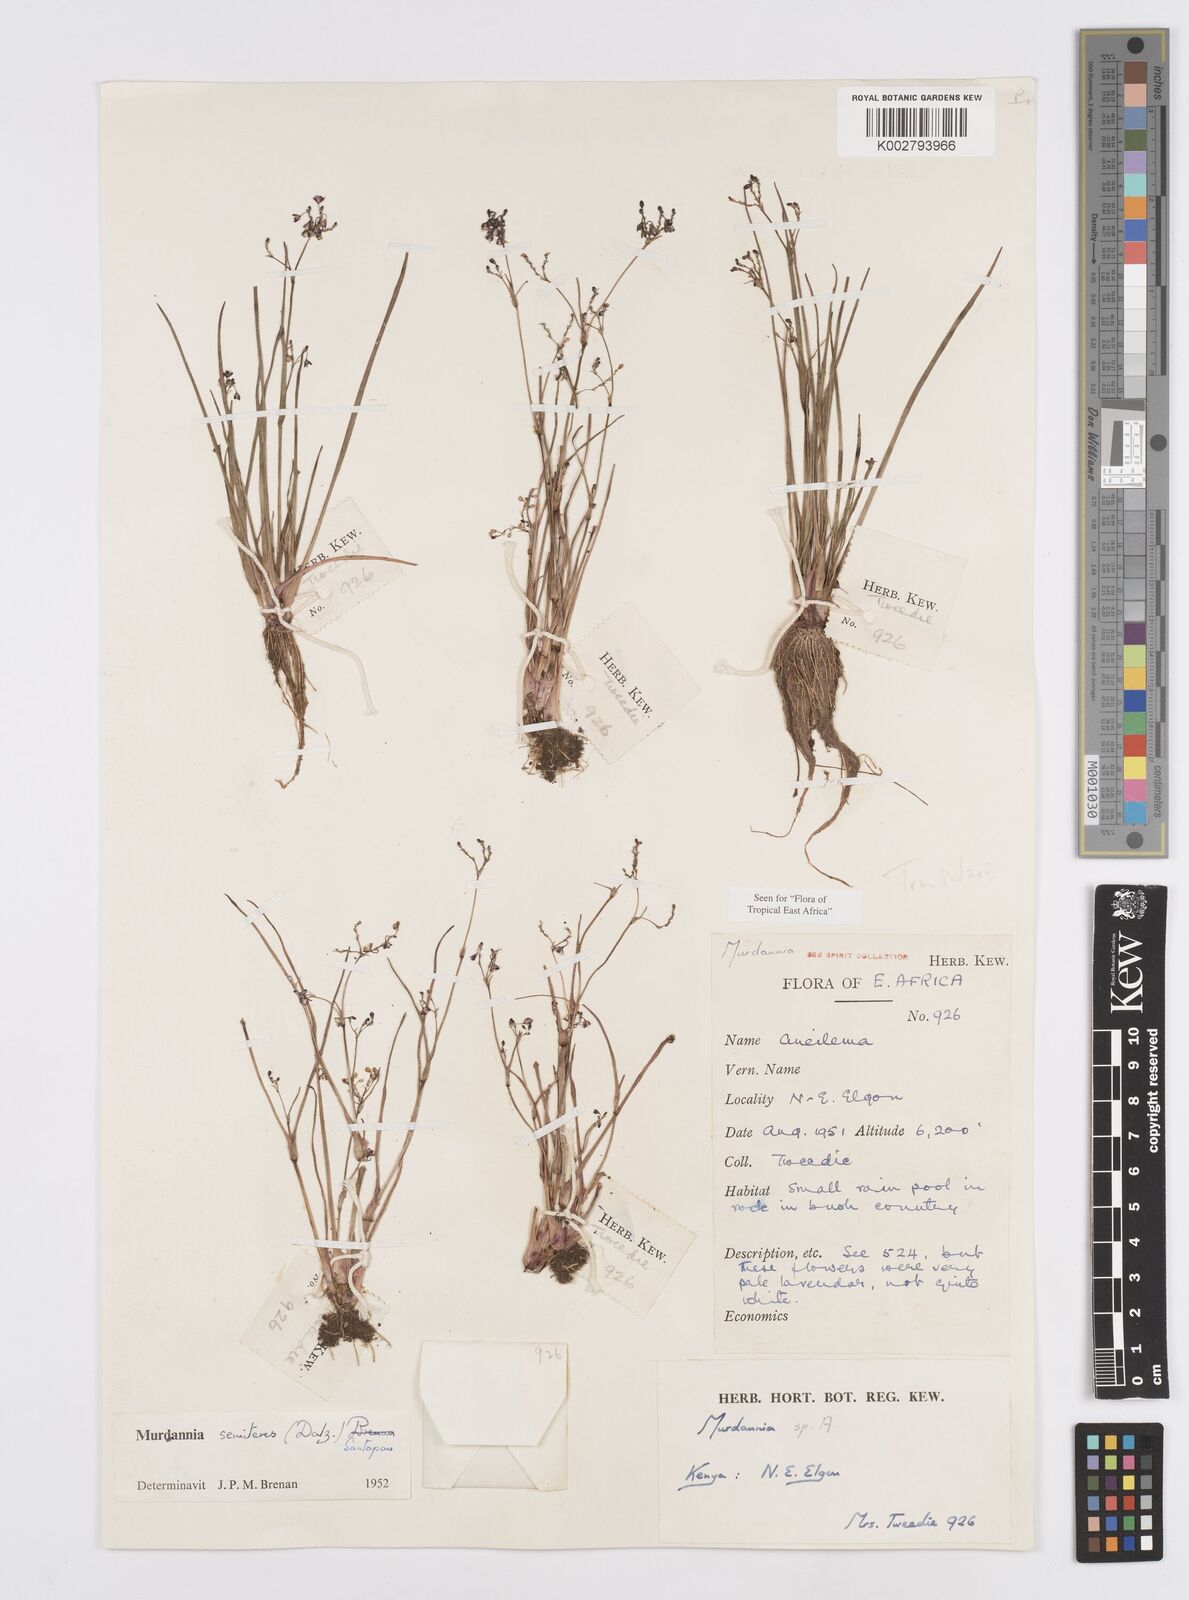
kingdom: Plantae
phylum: Tracheophyta
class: Liliopsida
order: Commelinales
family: Commelinaceae
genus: Murdannia
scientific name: Murdannia semiteres
